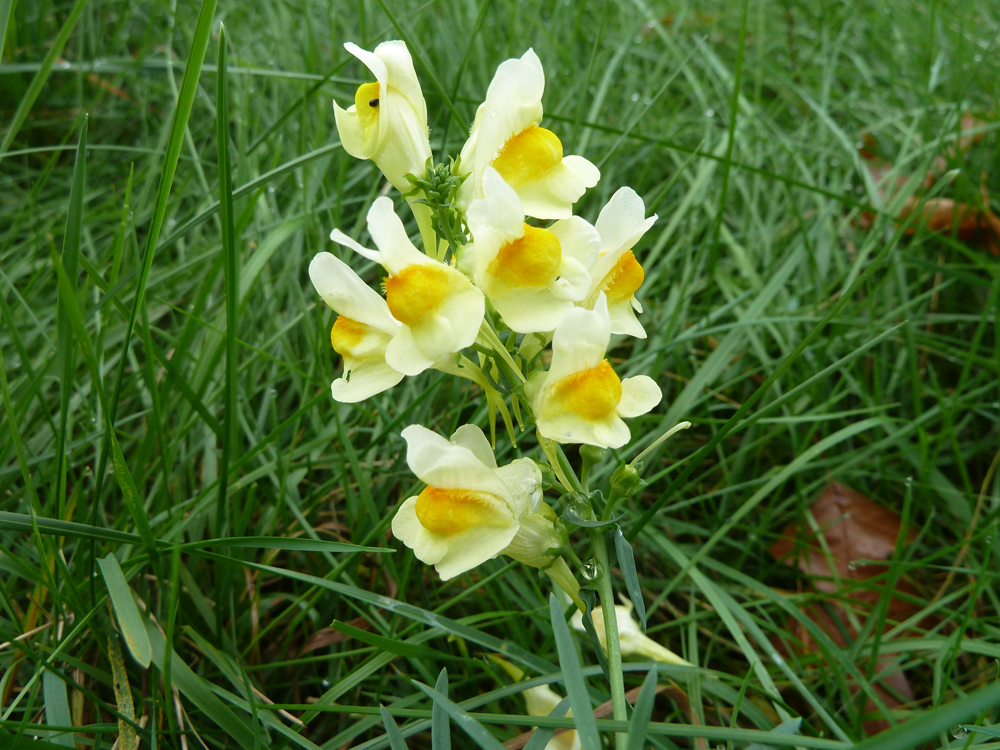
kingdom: Plantae
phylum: Tracheophyta
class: Magnoliopsida
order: Lamiales
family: Plantaginaceae
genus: Linaria
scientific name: Linaria vulgaris
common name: Butter and eggs
